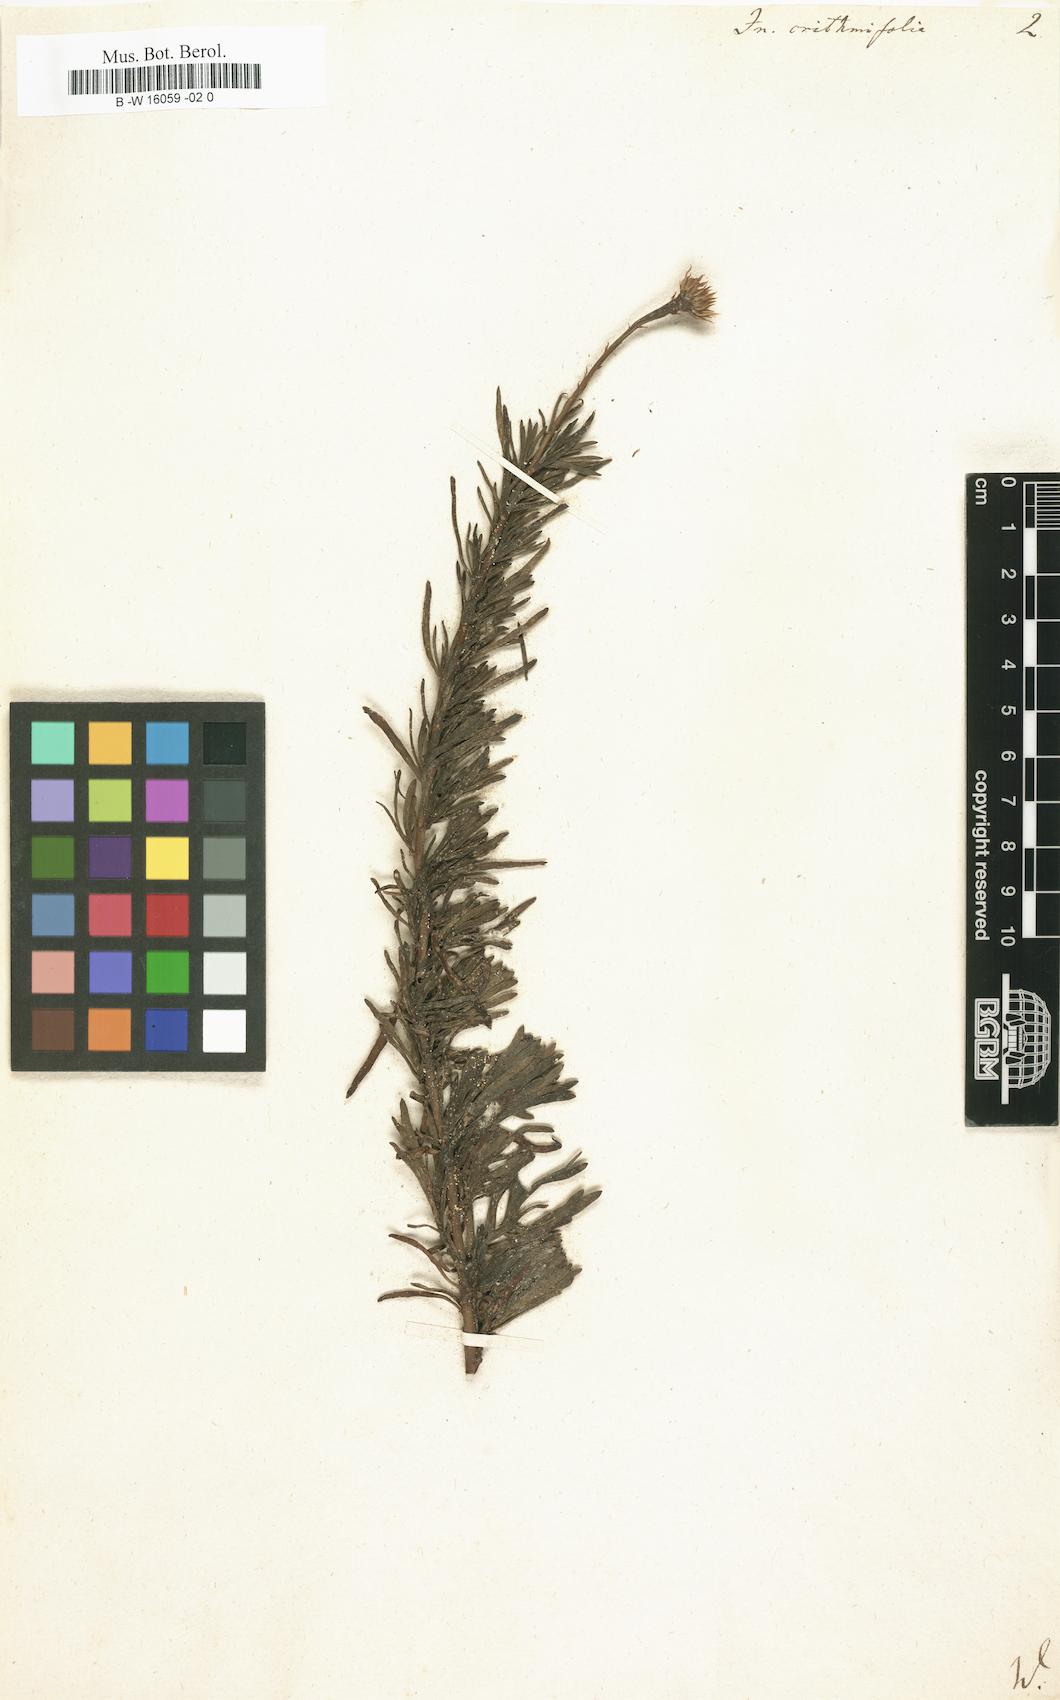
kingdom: Plantae
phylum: Tracheophyta
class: Magnoliopsida
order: Asterales
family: Asteraceae
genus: Inula
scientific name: Inula crithmifolia
